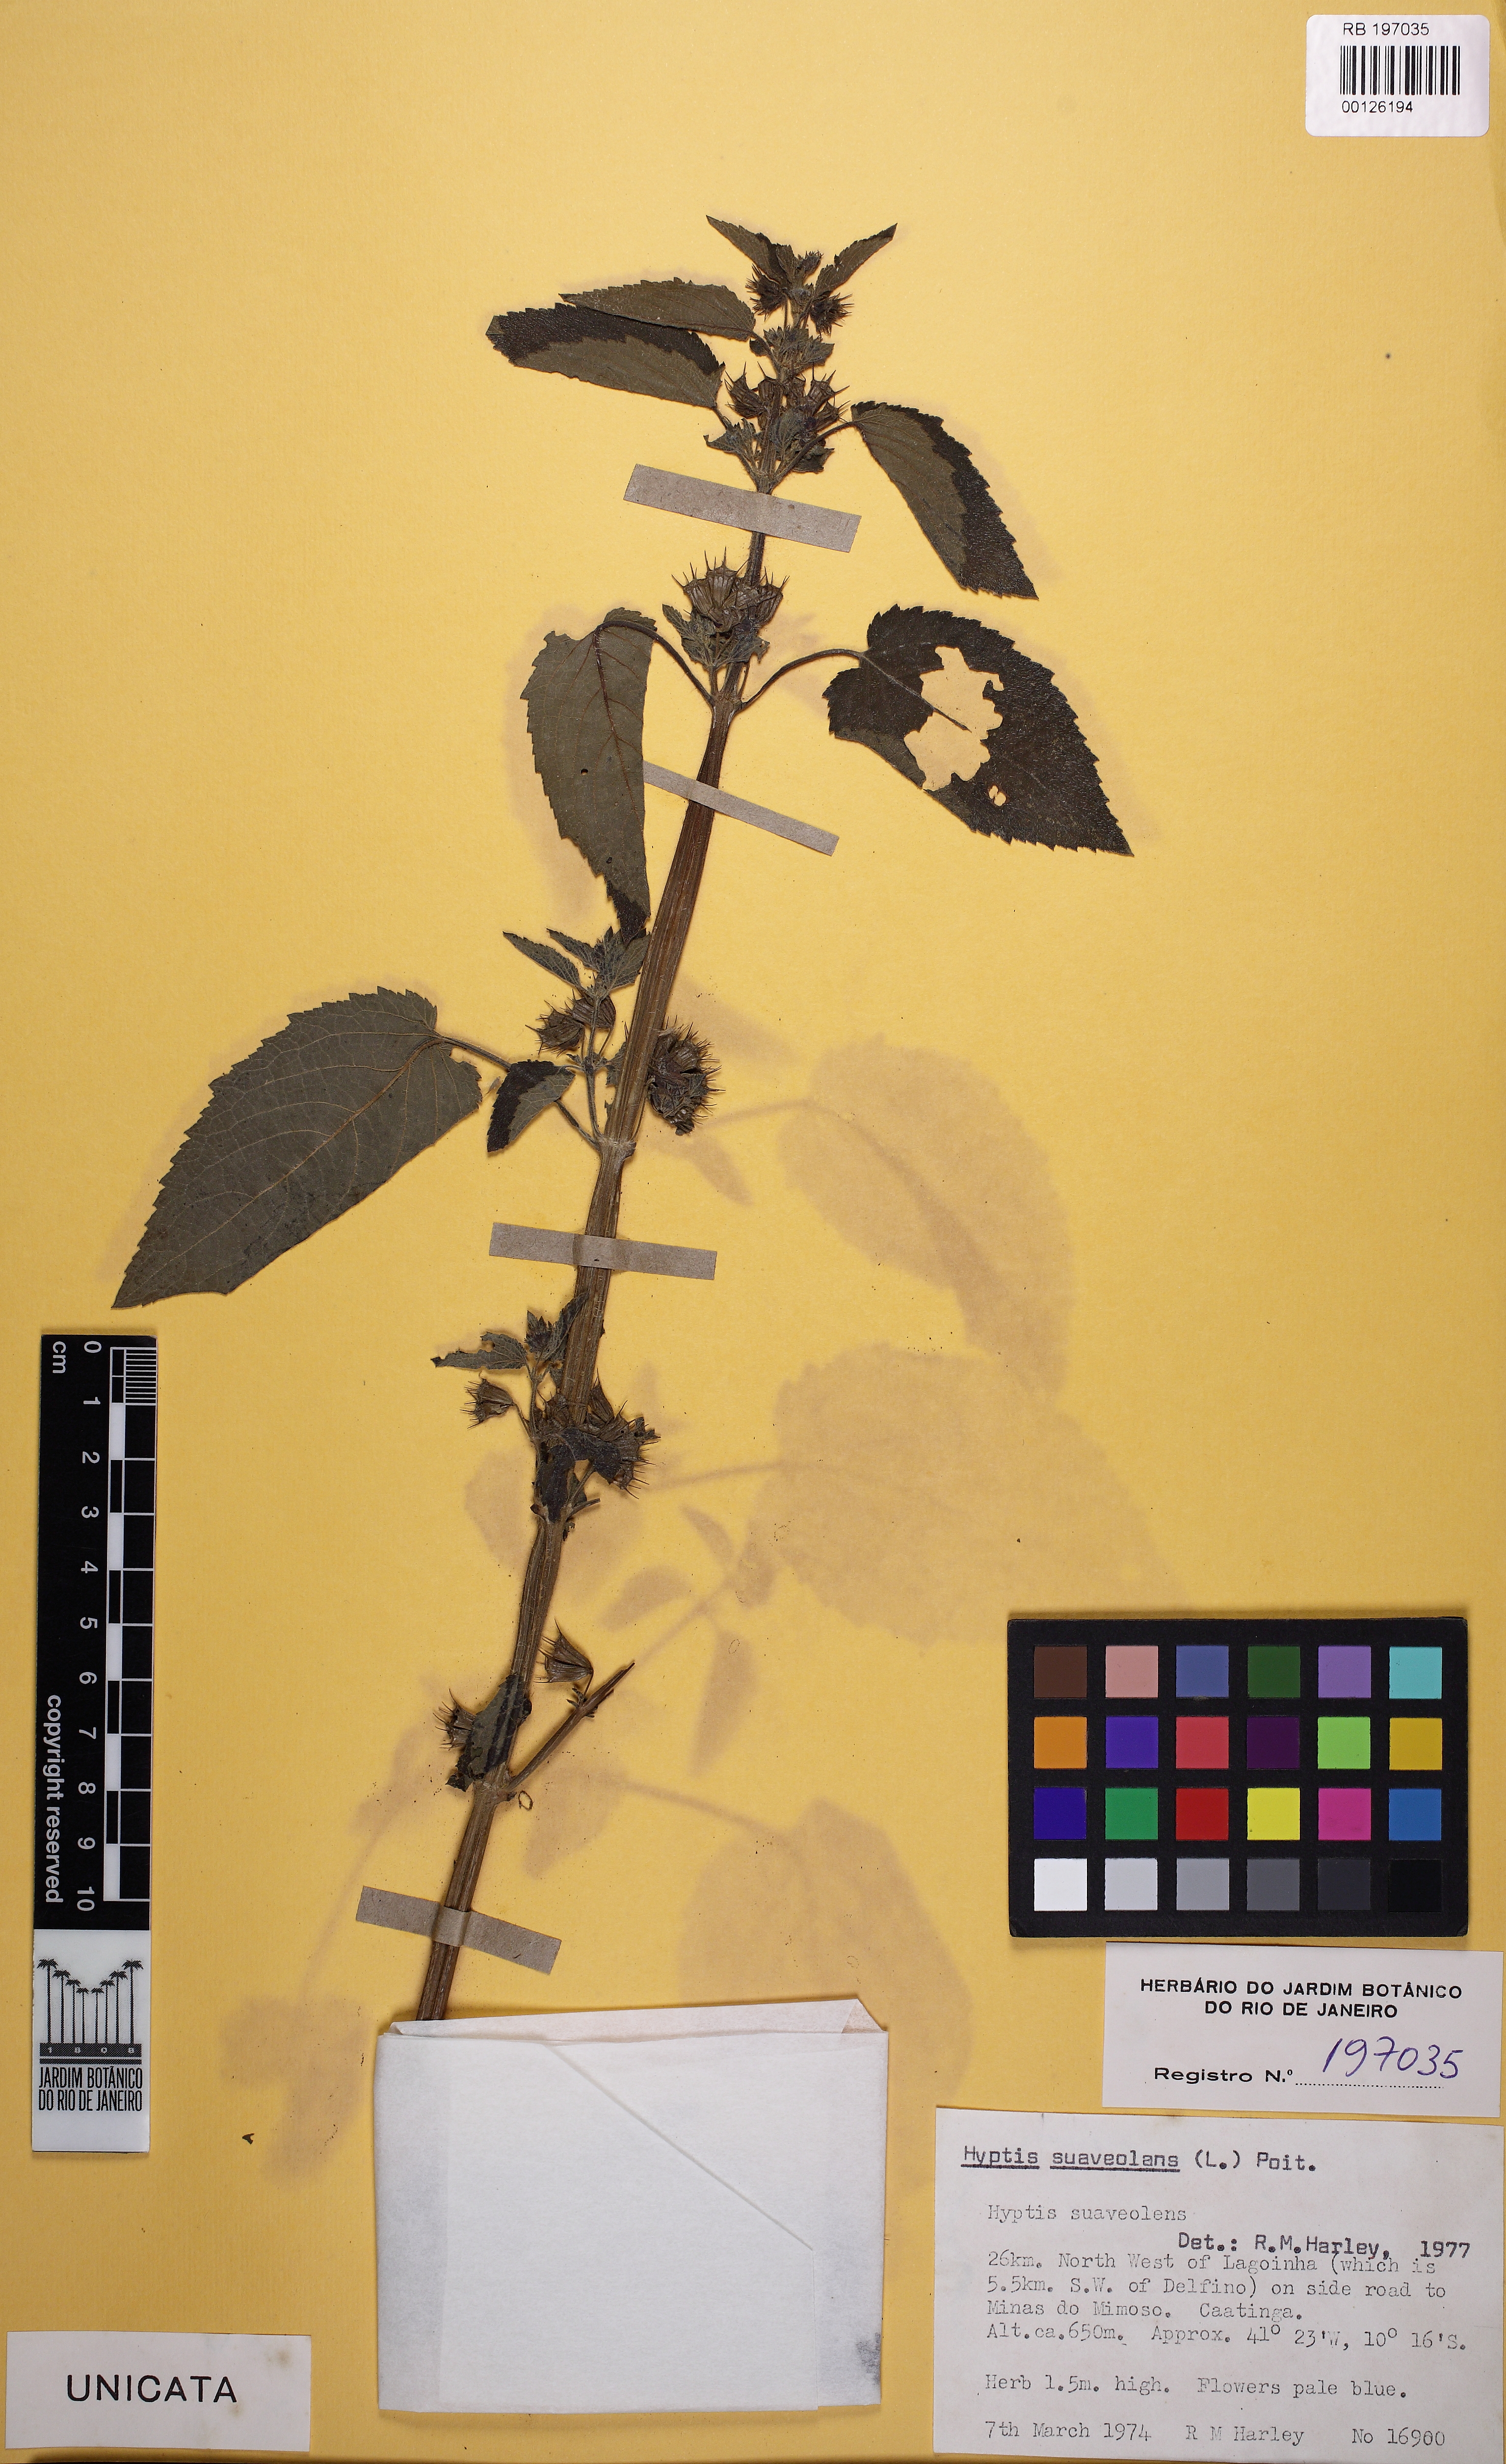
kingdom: Plantae
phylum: Tracheophyta
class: Magnoliopsida
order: Lamiales
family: Lamiaceae
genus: Mesosphaerum
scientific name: Mesosphaerum suaveolens
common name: Pignut
